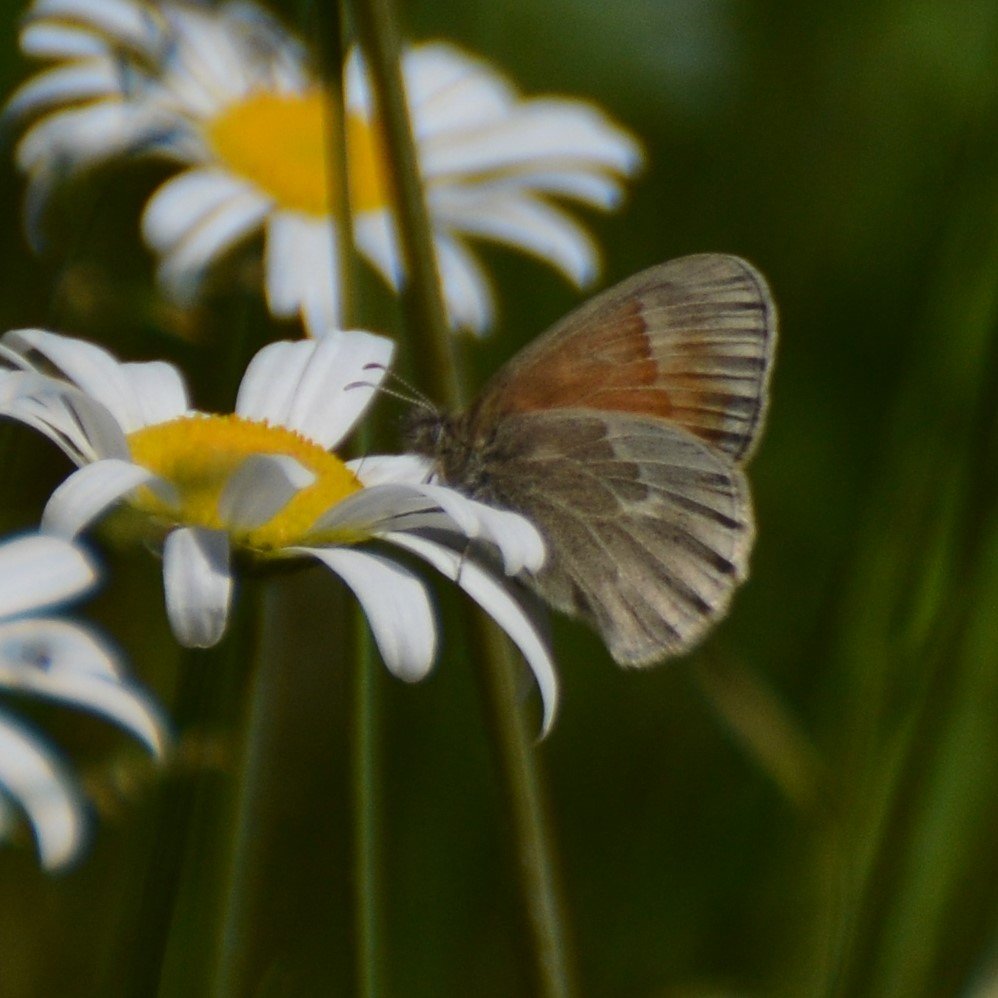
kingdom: Animalia
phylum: Arthropoda
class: Insecta
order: Lepidoptera
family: Nymphalidae
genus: Coenonympha
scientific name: Coenonympha tullia
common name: Large Heath
